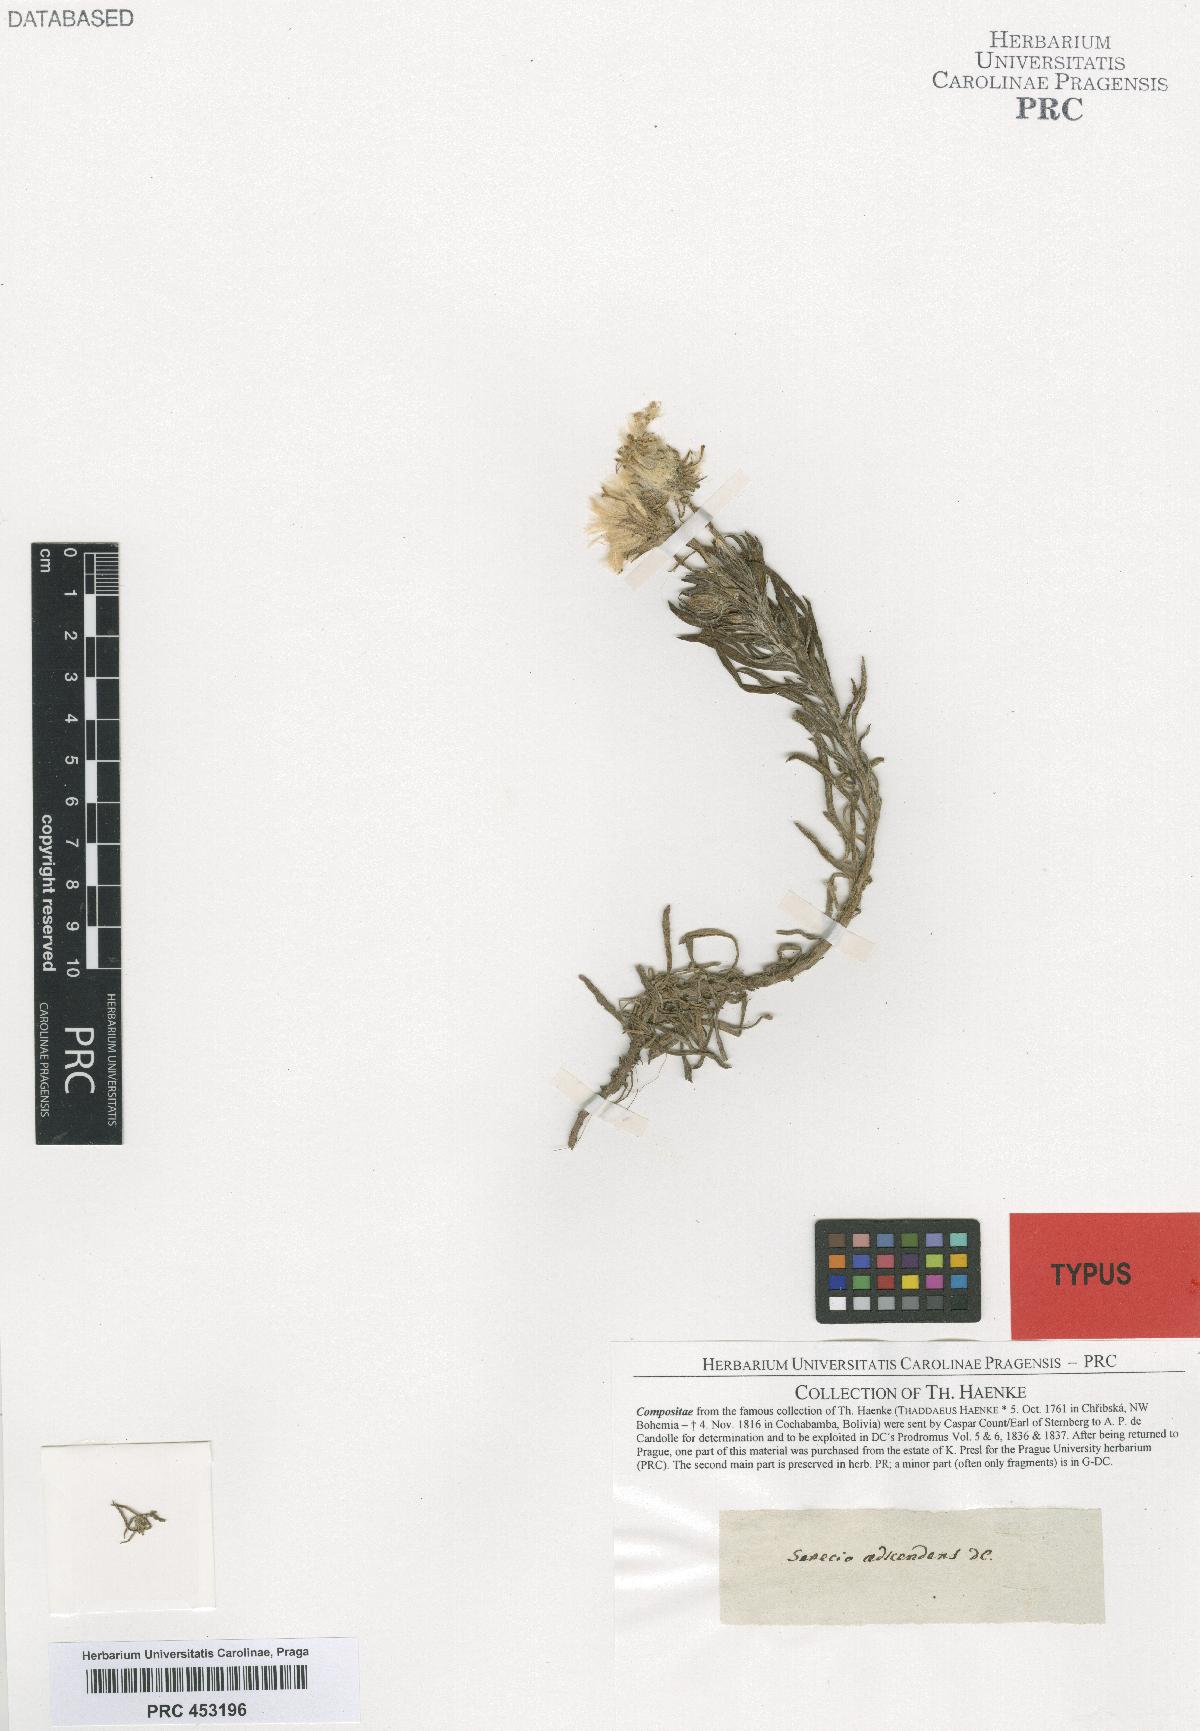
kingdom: Plantae
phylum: Tracheophyta
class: Magnoliopsida
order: Asterales
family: Asteraceae
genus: Senecio
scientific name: Senecio adscendens
